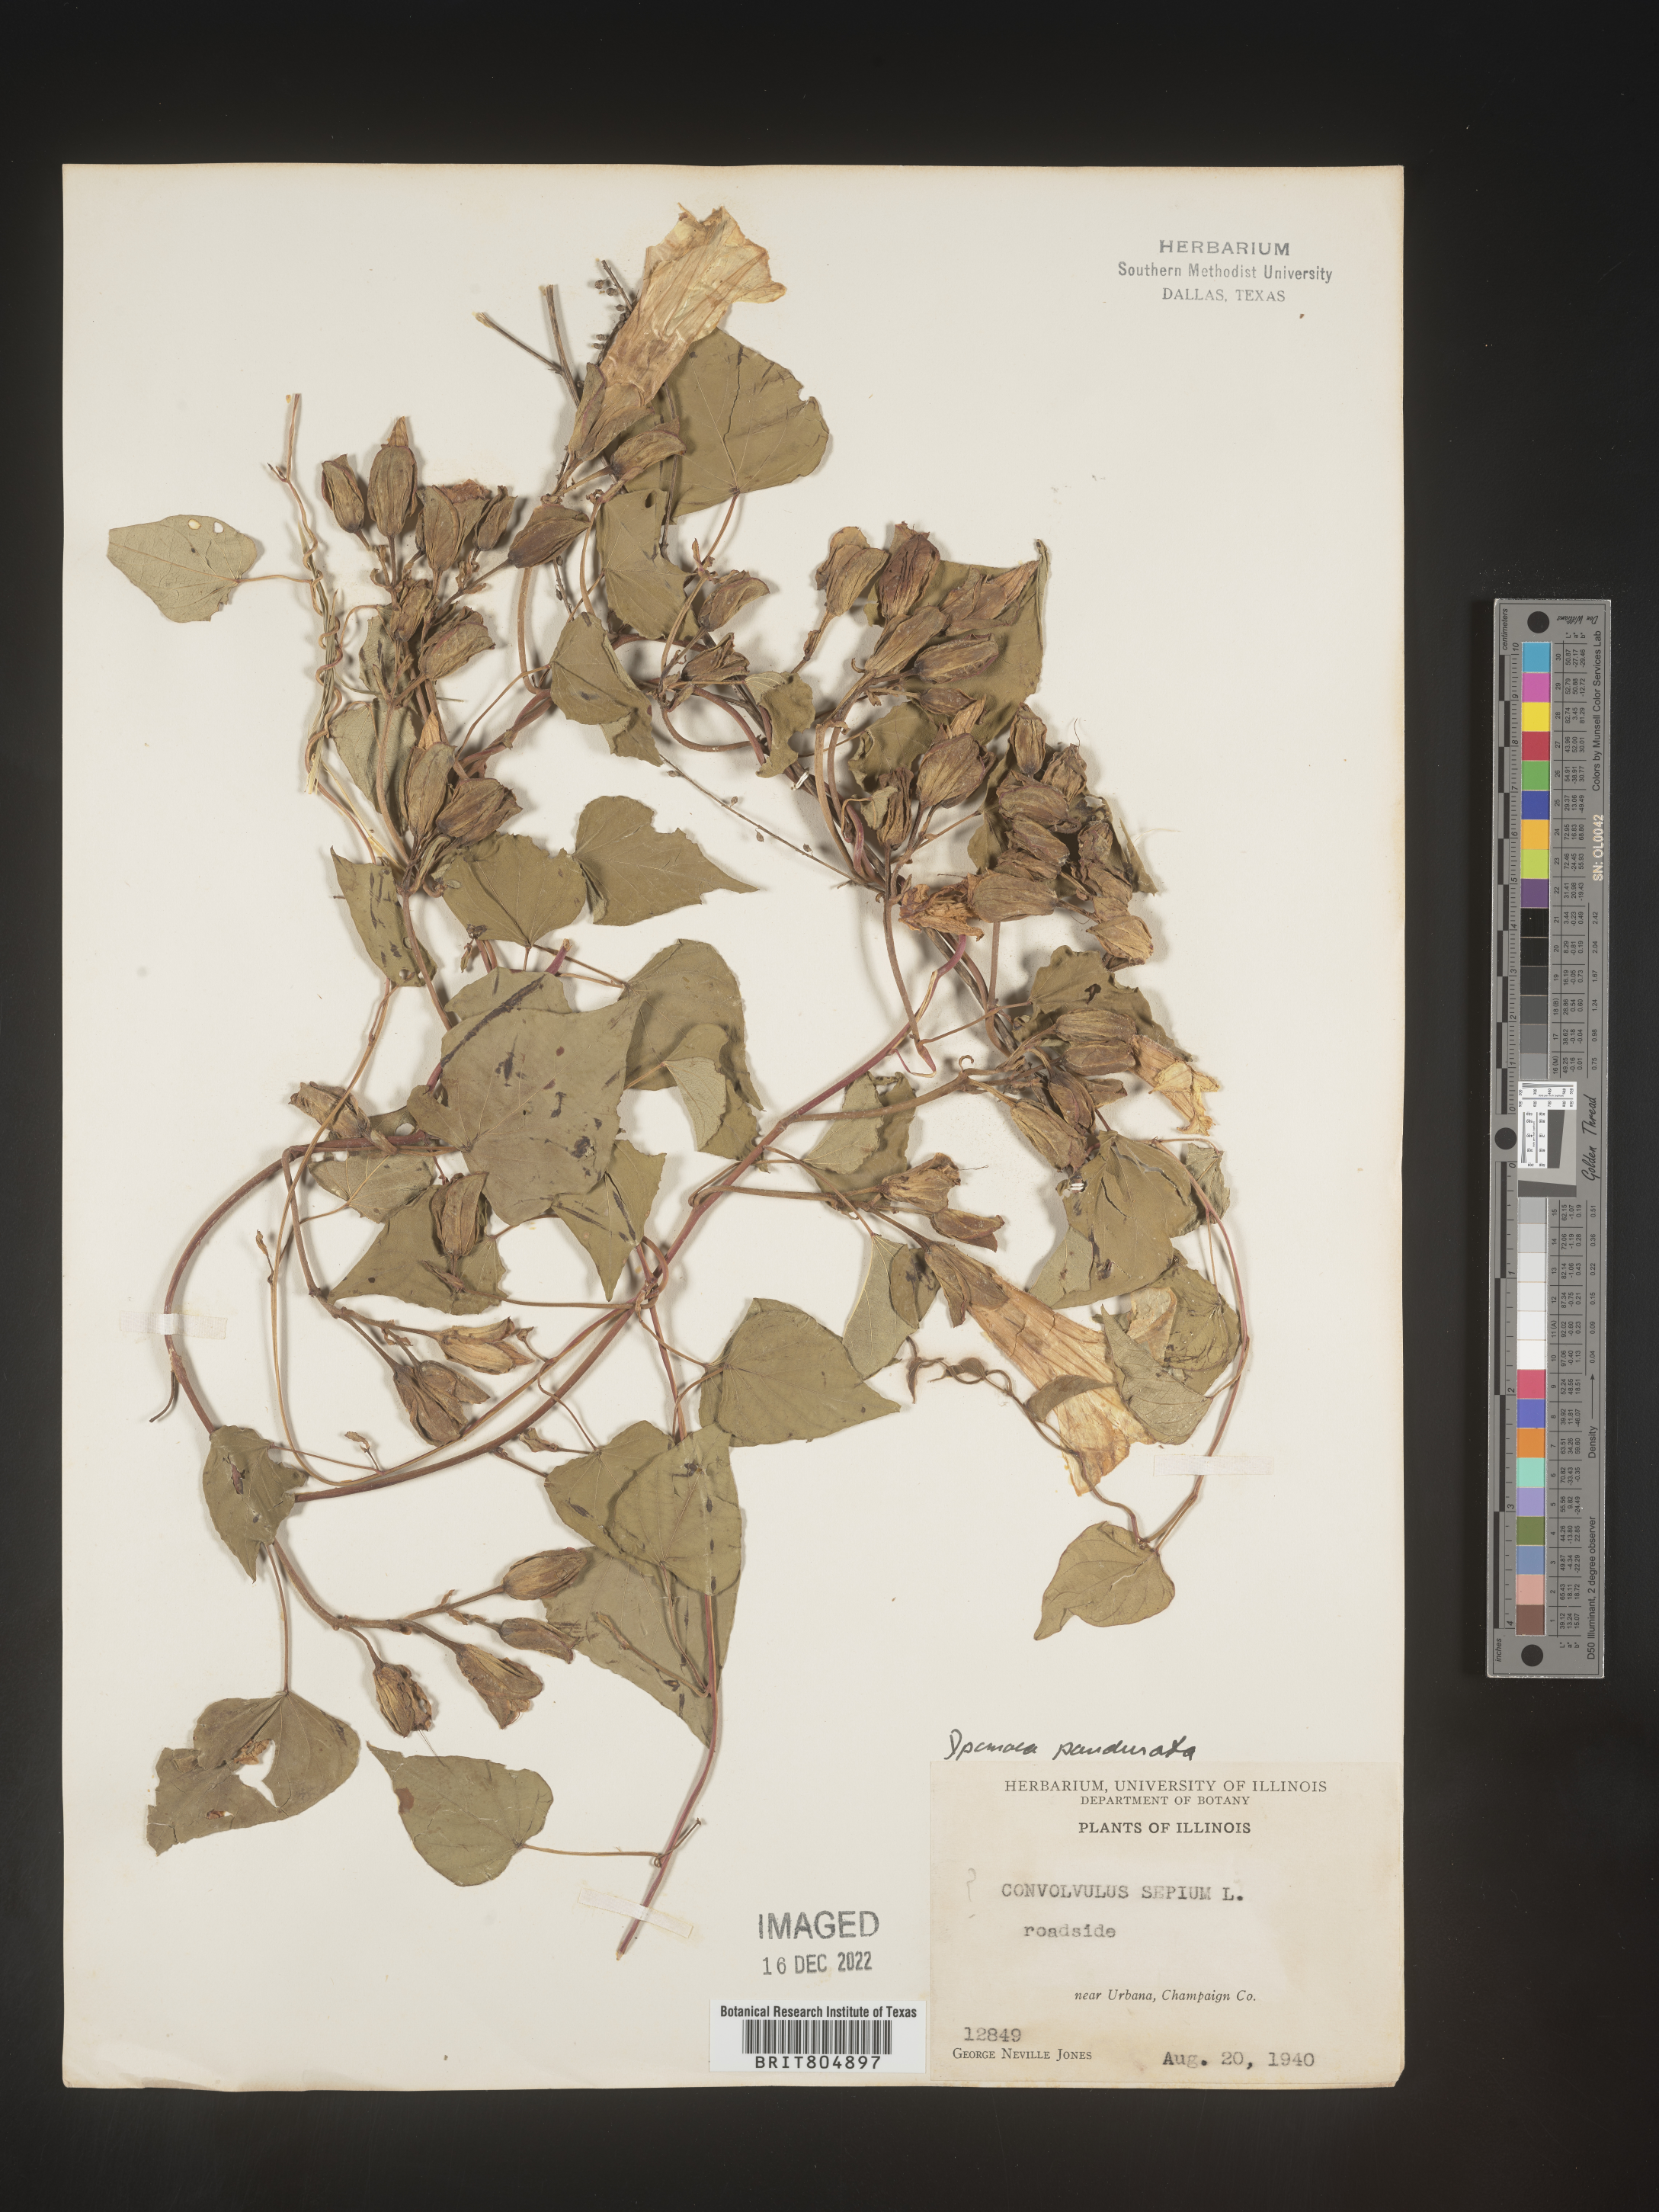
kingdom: Plantae
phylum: Tracheophyta
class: Magnoliopsida
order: Solanales
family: Convolvulaceae
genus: Ipomoea
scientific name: Ipomoea pandurata
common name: Man-of-the-earth
